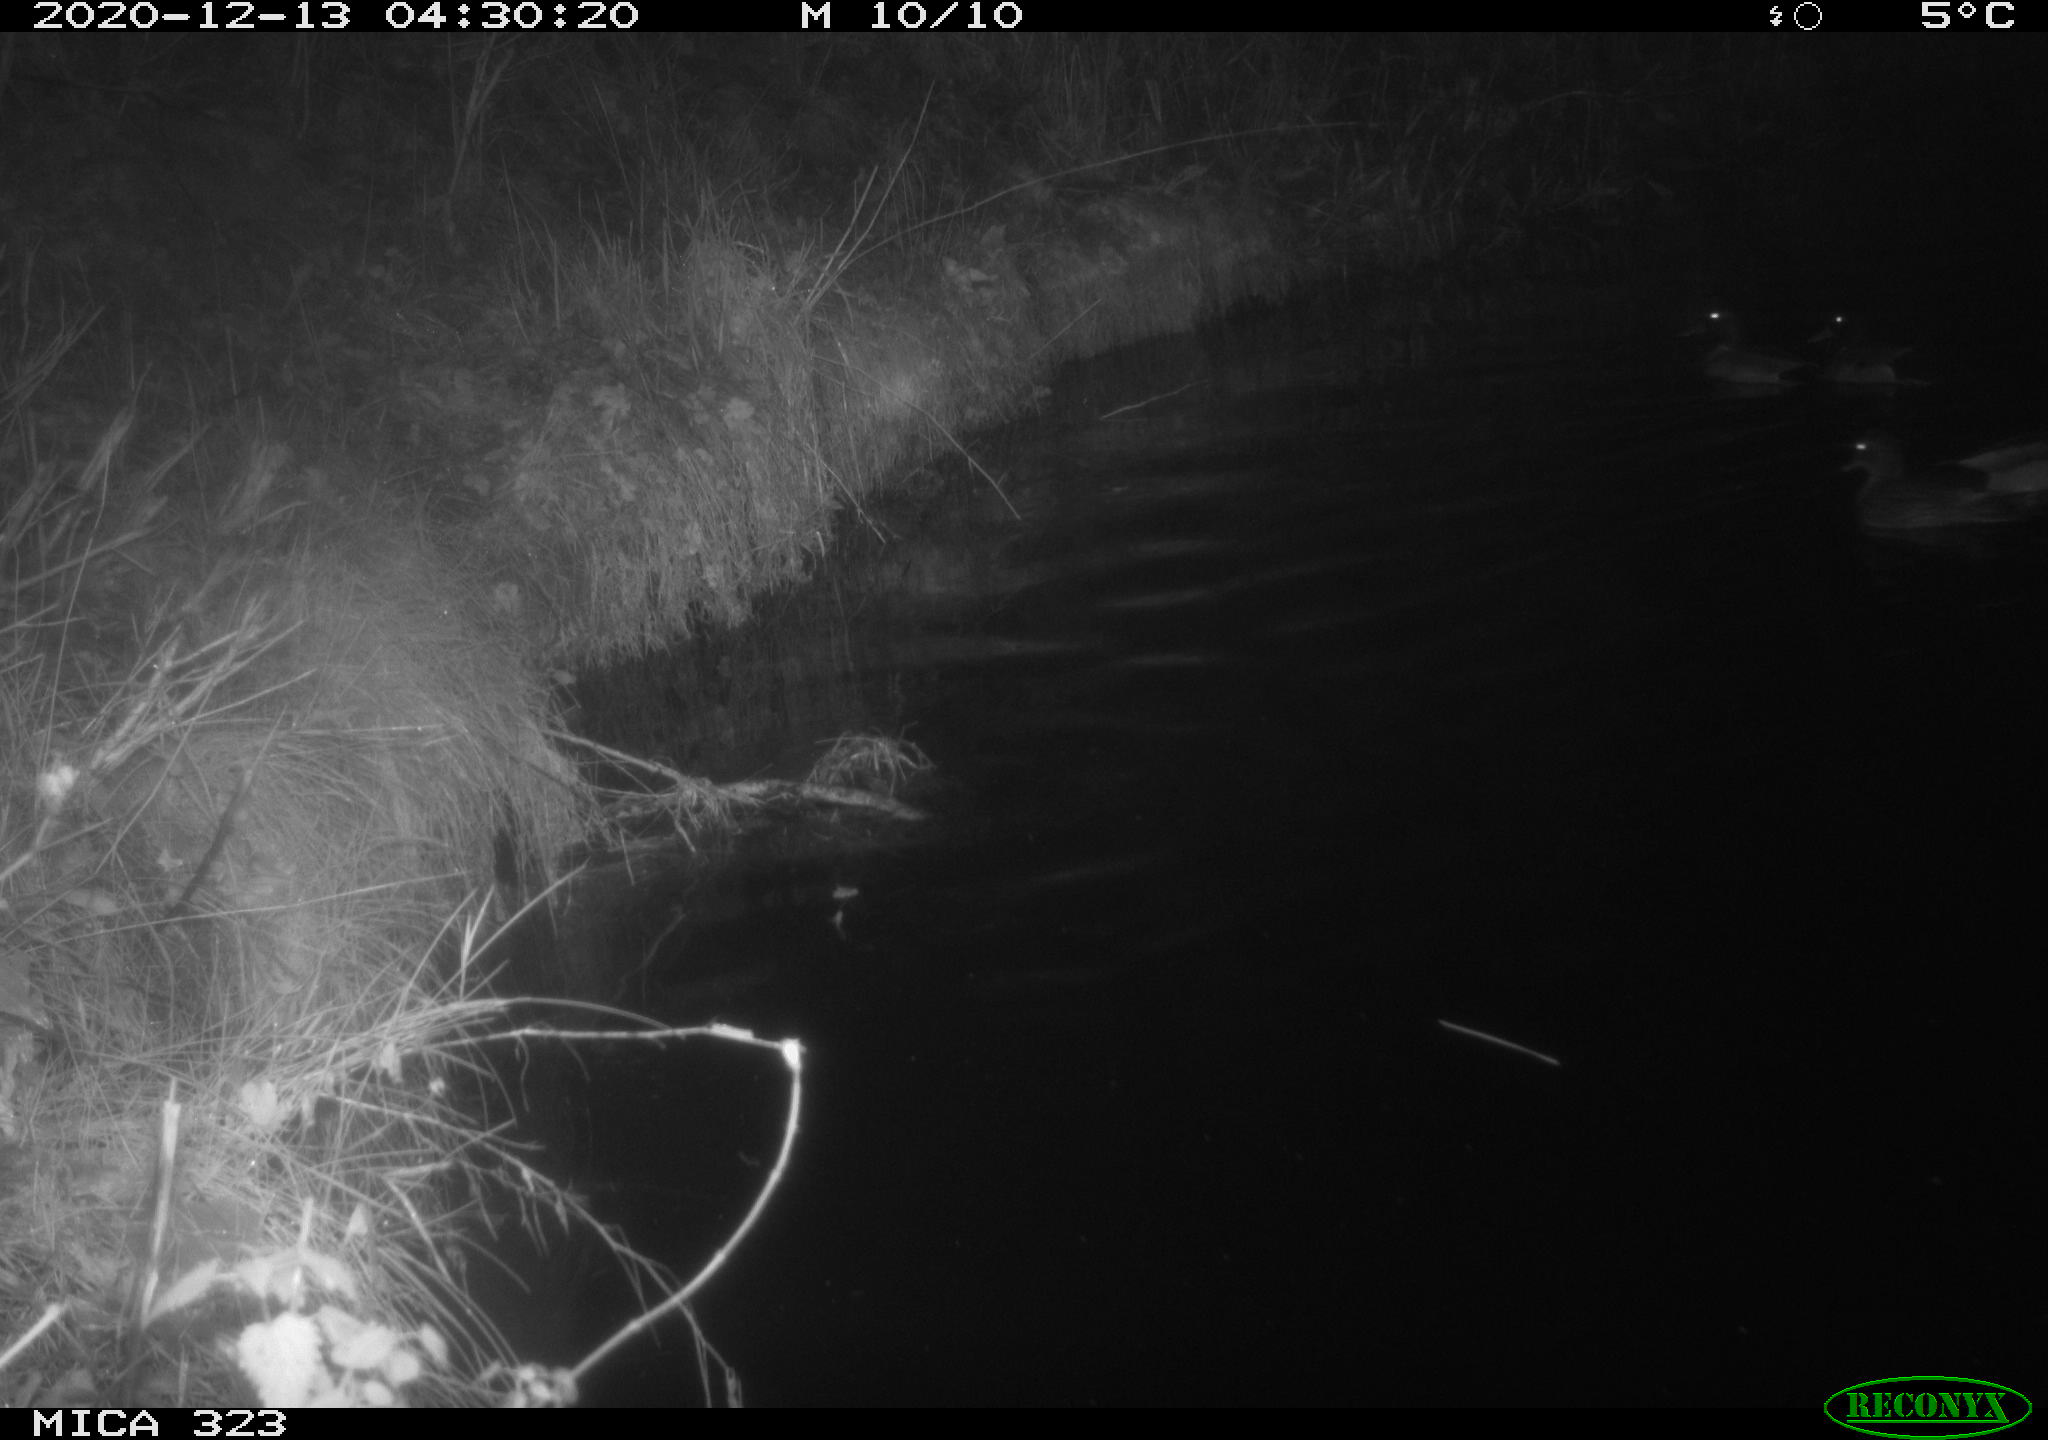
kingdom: Animalia
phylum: Chordata
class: Aves
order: Anseriformes
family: Anatidae
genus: Anas
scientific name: Anas platyrhynchos
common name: Mallard
